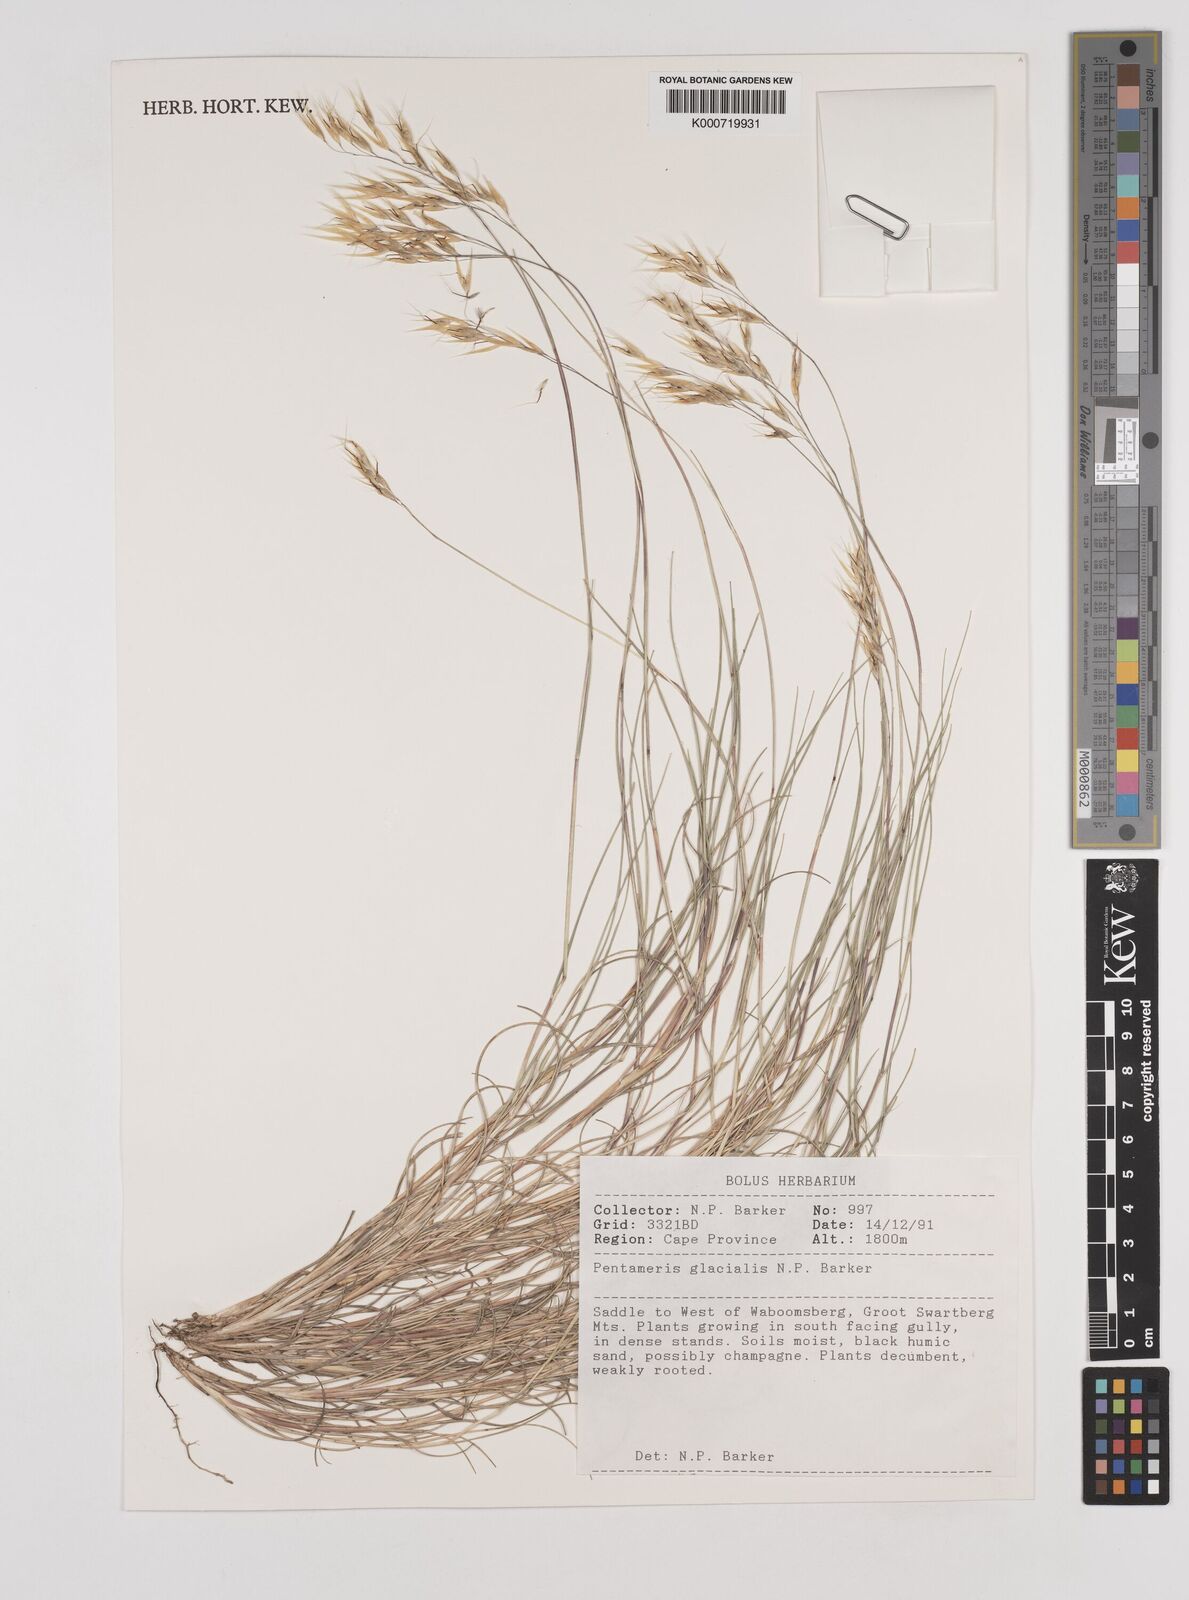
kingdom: Plantae
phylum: Tracheophyta
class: Liliopsida
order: Poales
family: Poaceae
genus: Pentameris
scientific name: Pentameris glacialis
